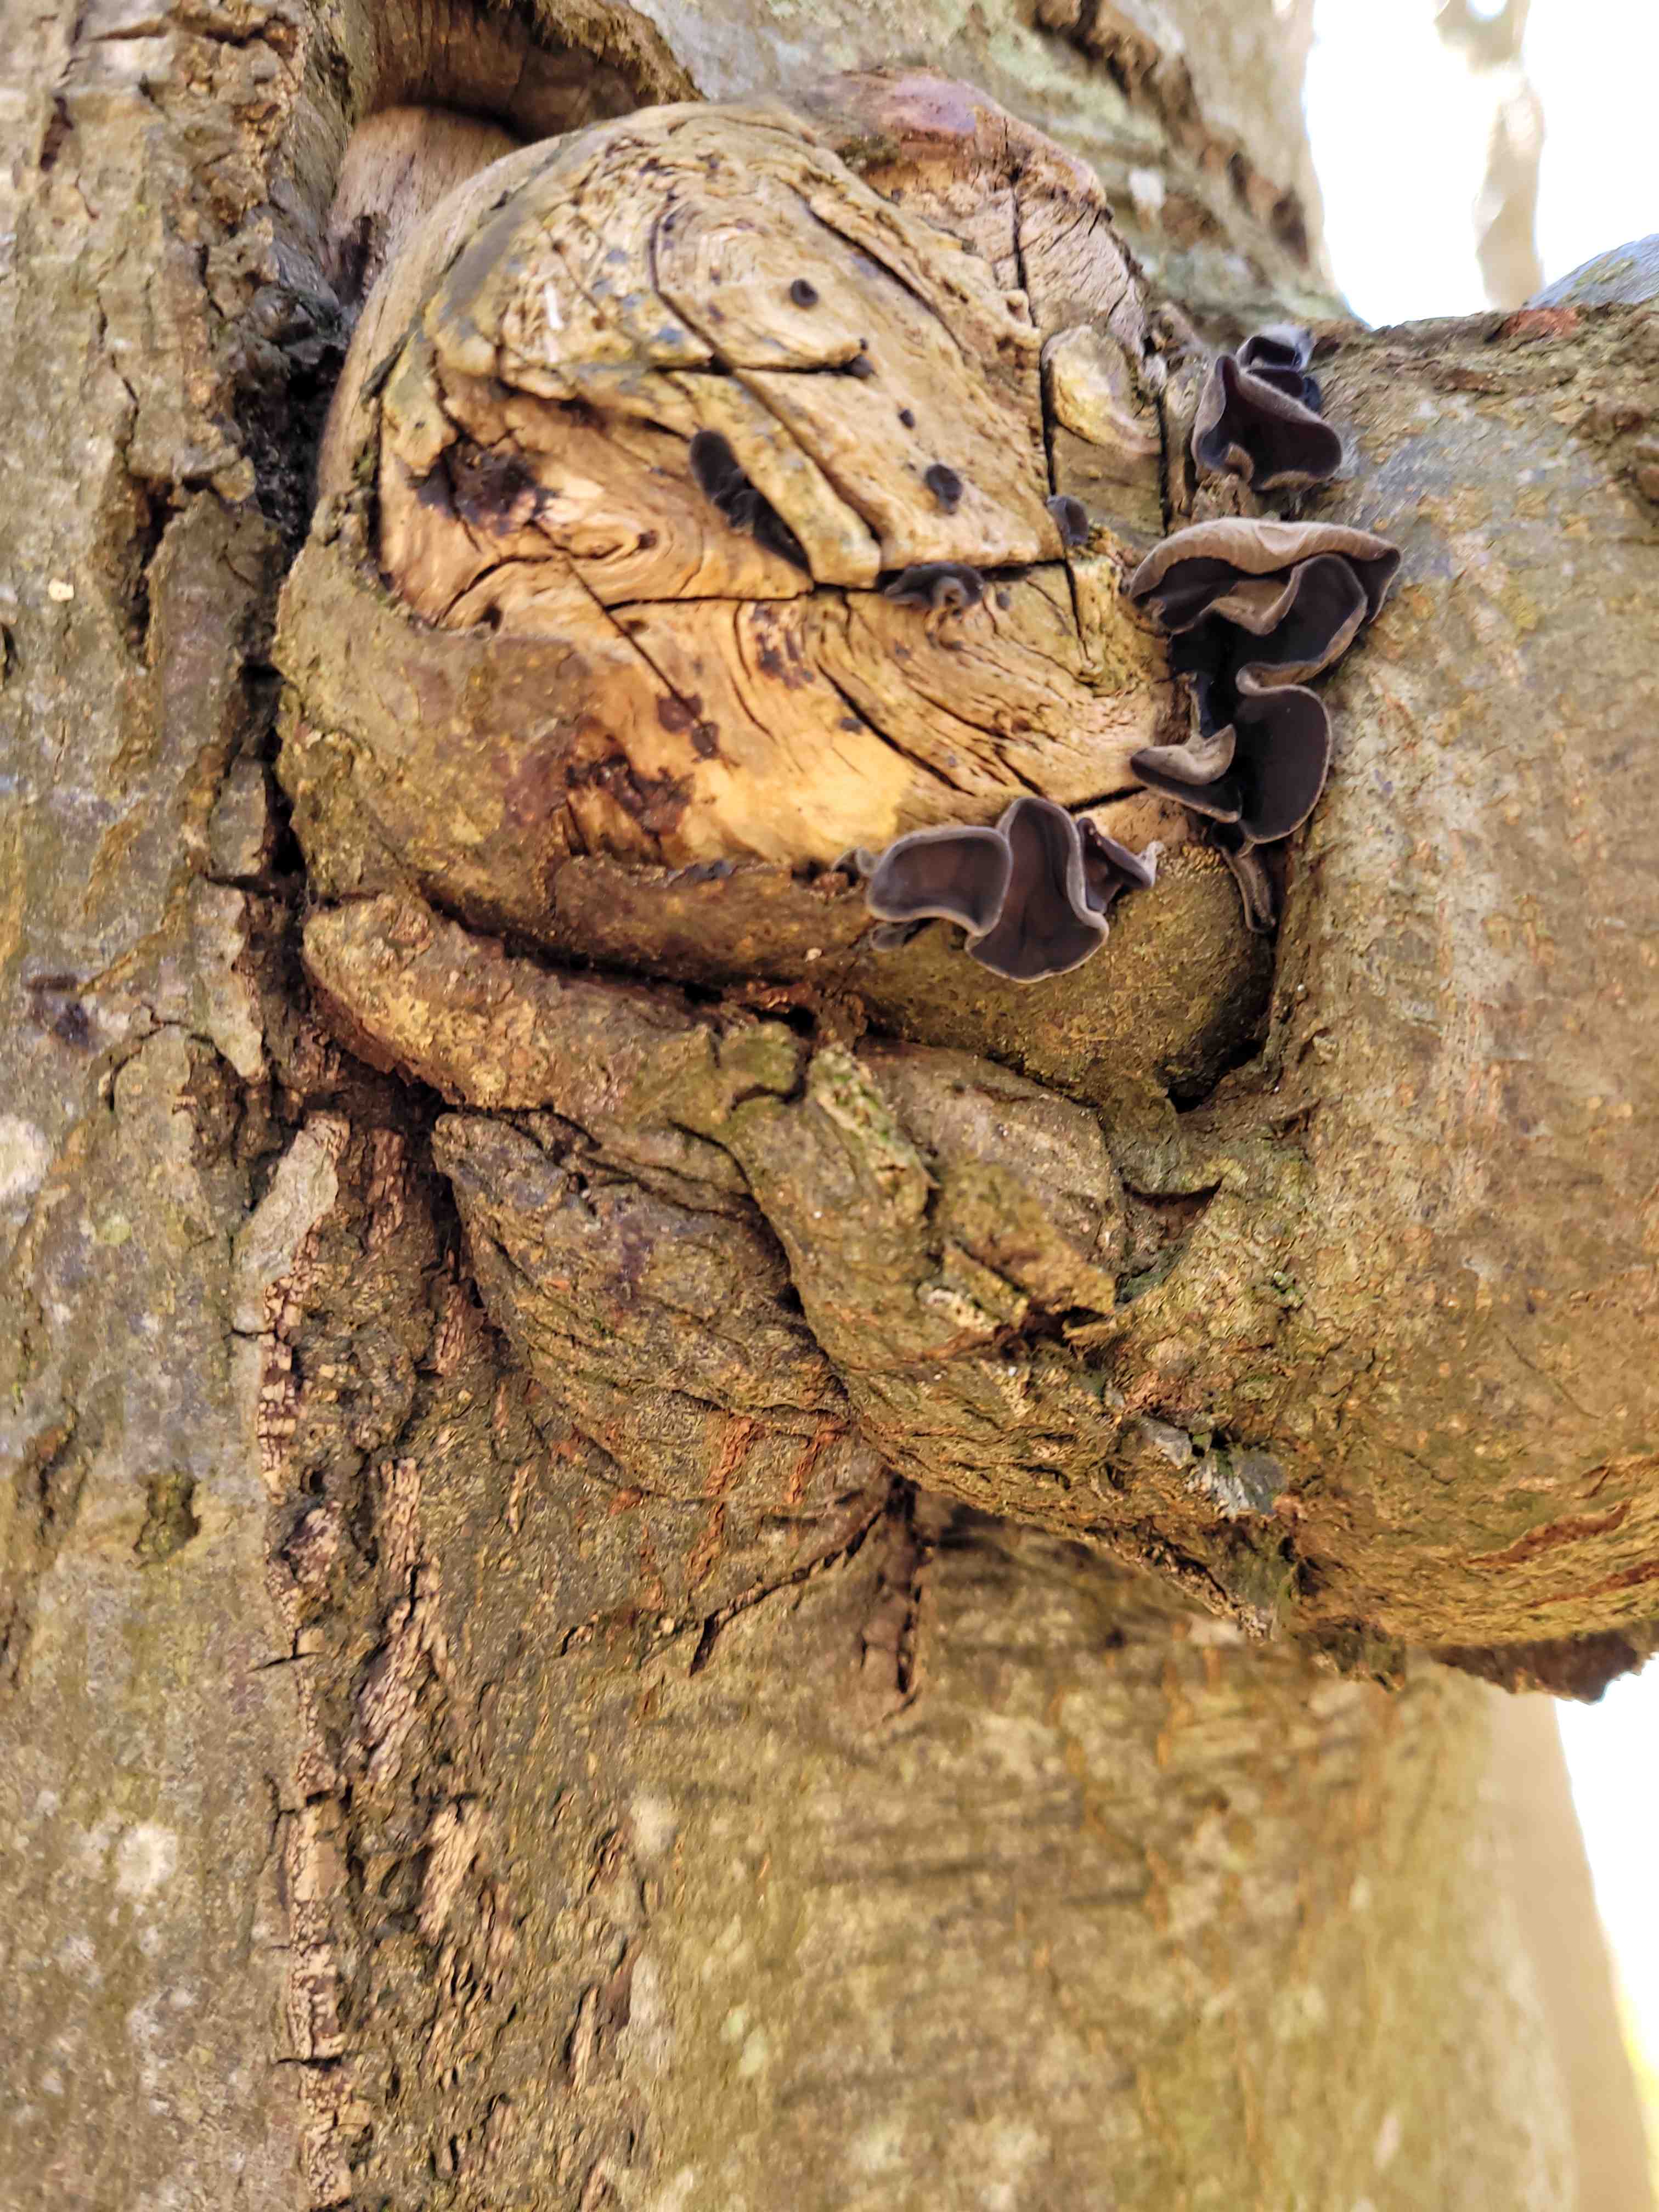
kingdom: Fungi
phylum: Basidiomycota
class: Agaricomycetes
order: Auriculariales
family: Auriculariaceae
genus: Auricularia
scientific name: Auricularia auricula-judae
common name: almindelig judasøre
